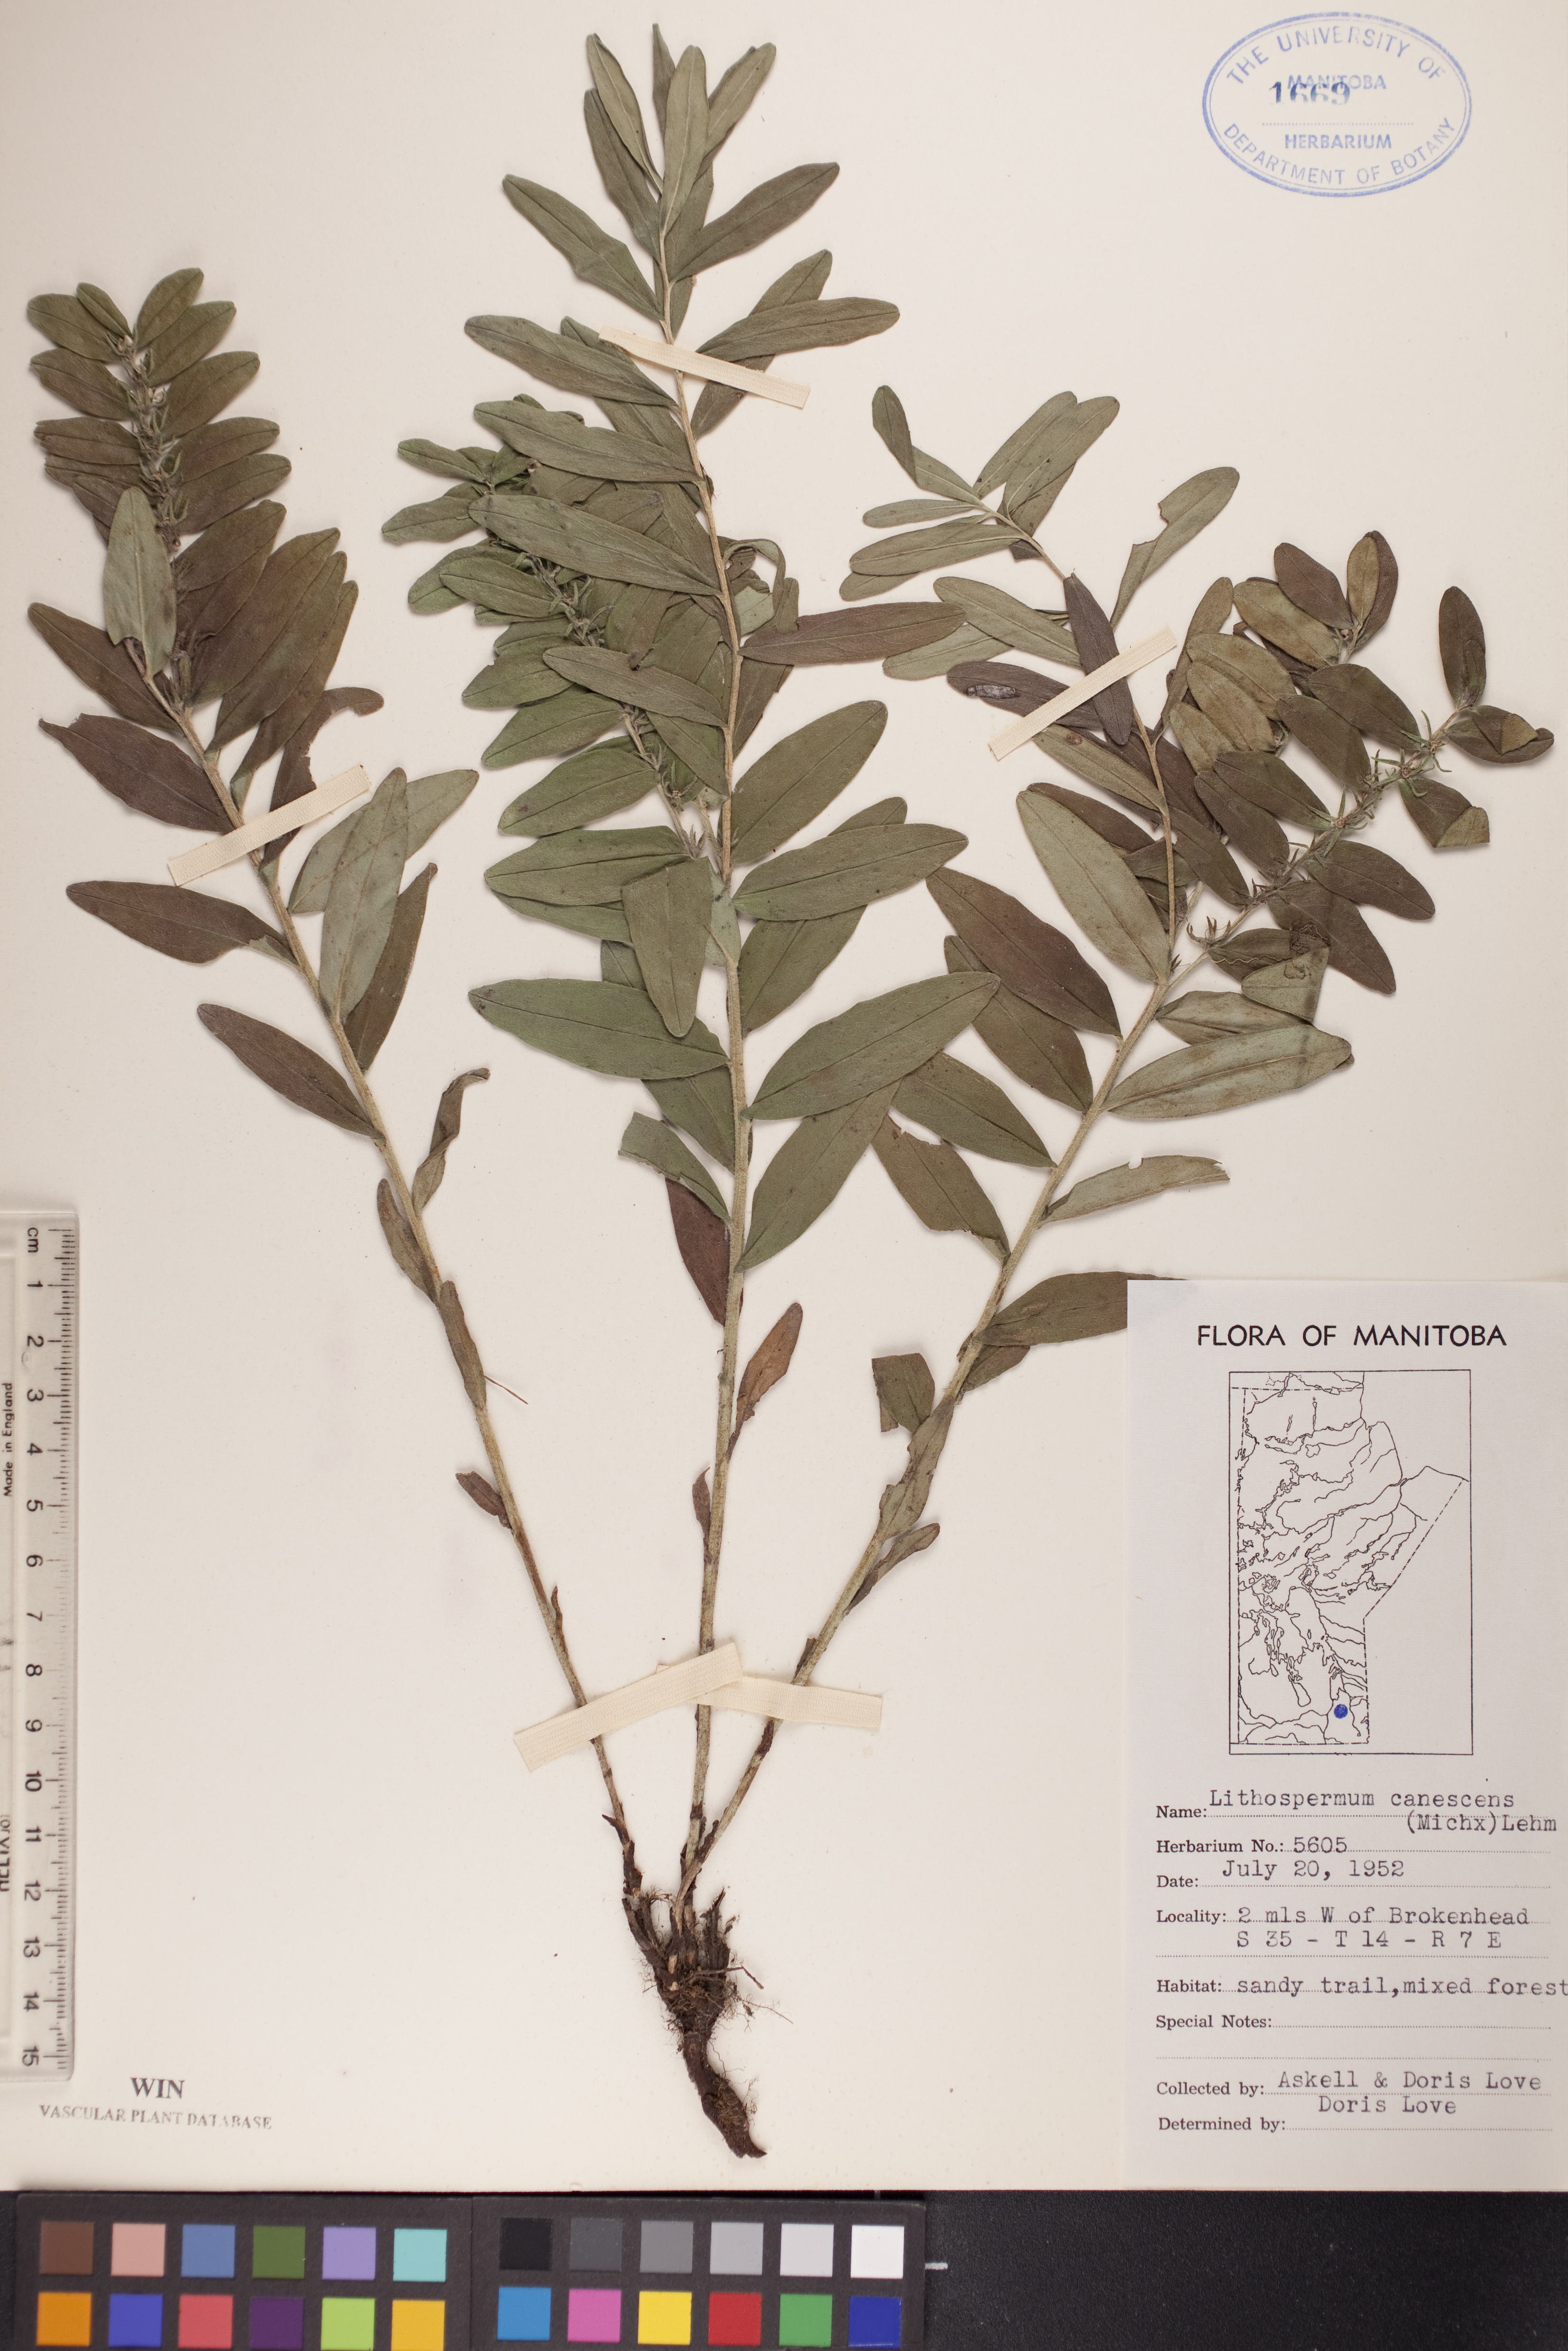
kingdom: Plantae
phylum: Tracheophyta
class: Magnoliopsida
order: Boraginales
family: Boraginaceae
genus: Lithospermum
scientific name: Lithospermum canescens
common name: Hoary puccoon
